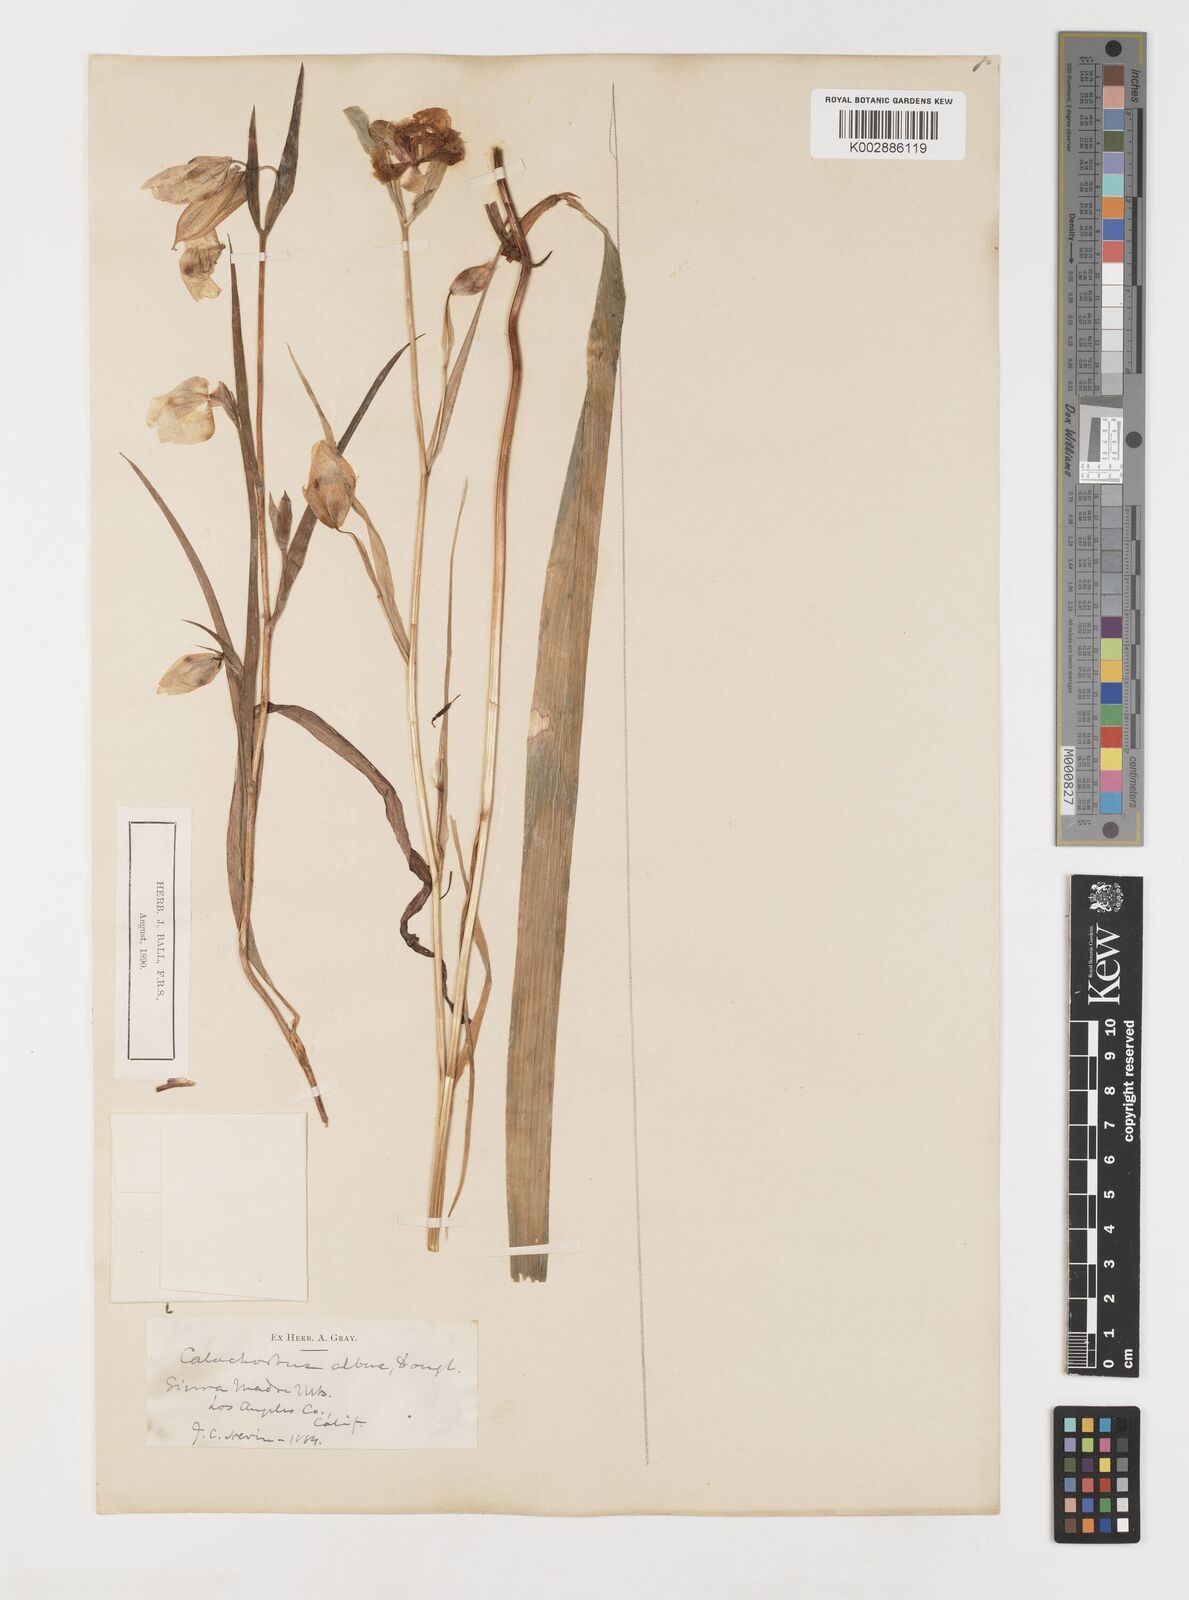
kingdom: Plantae
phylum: Tracheophyta
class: Liliopsida
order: Liliales
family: Liliaceae
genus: Calochortus
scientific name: Calochortus albus
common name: Fairy-lantern
